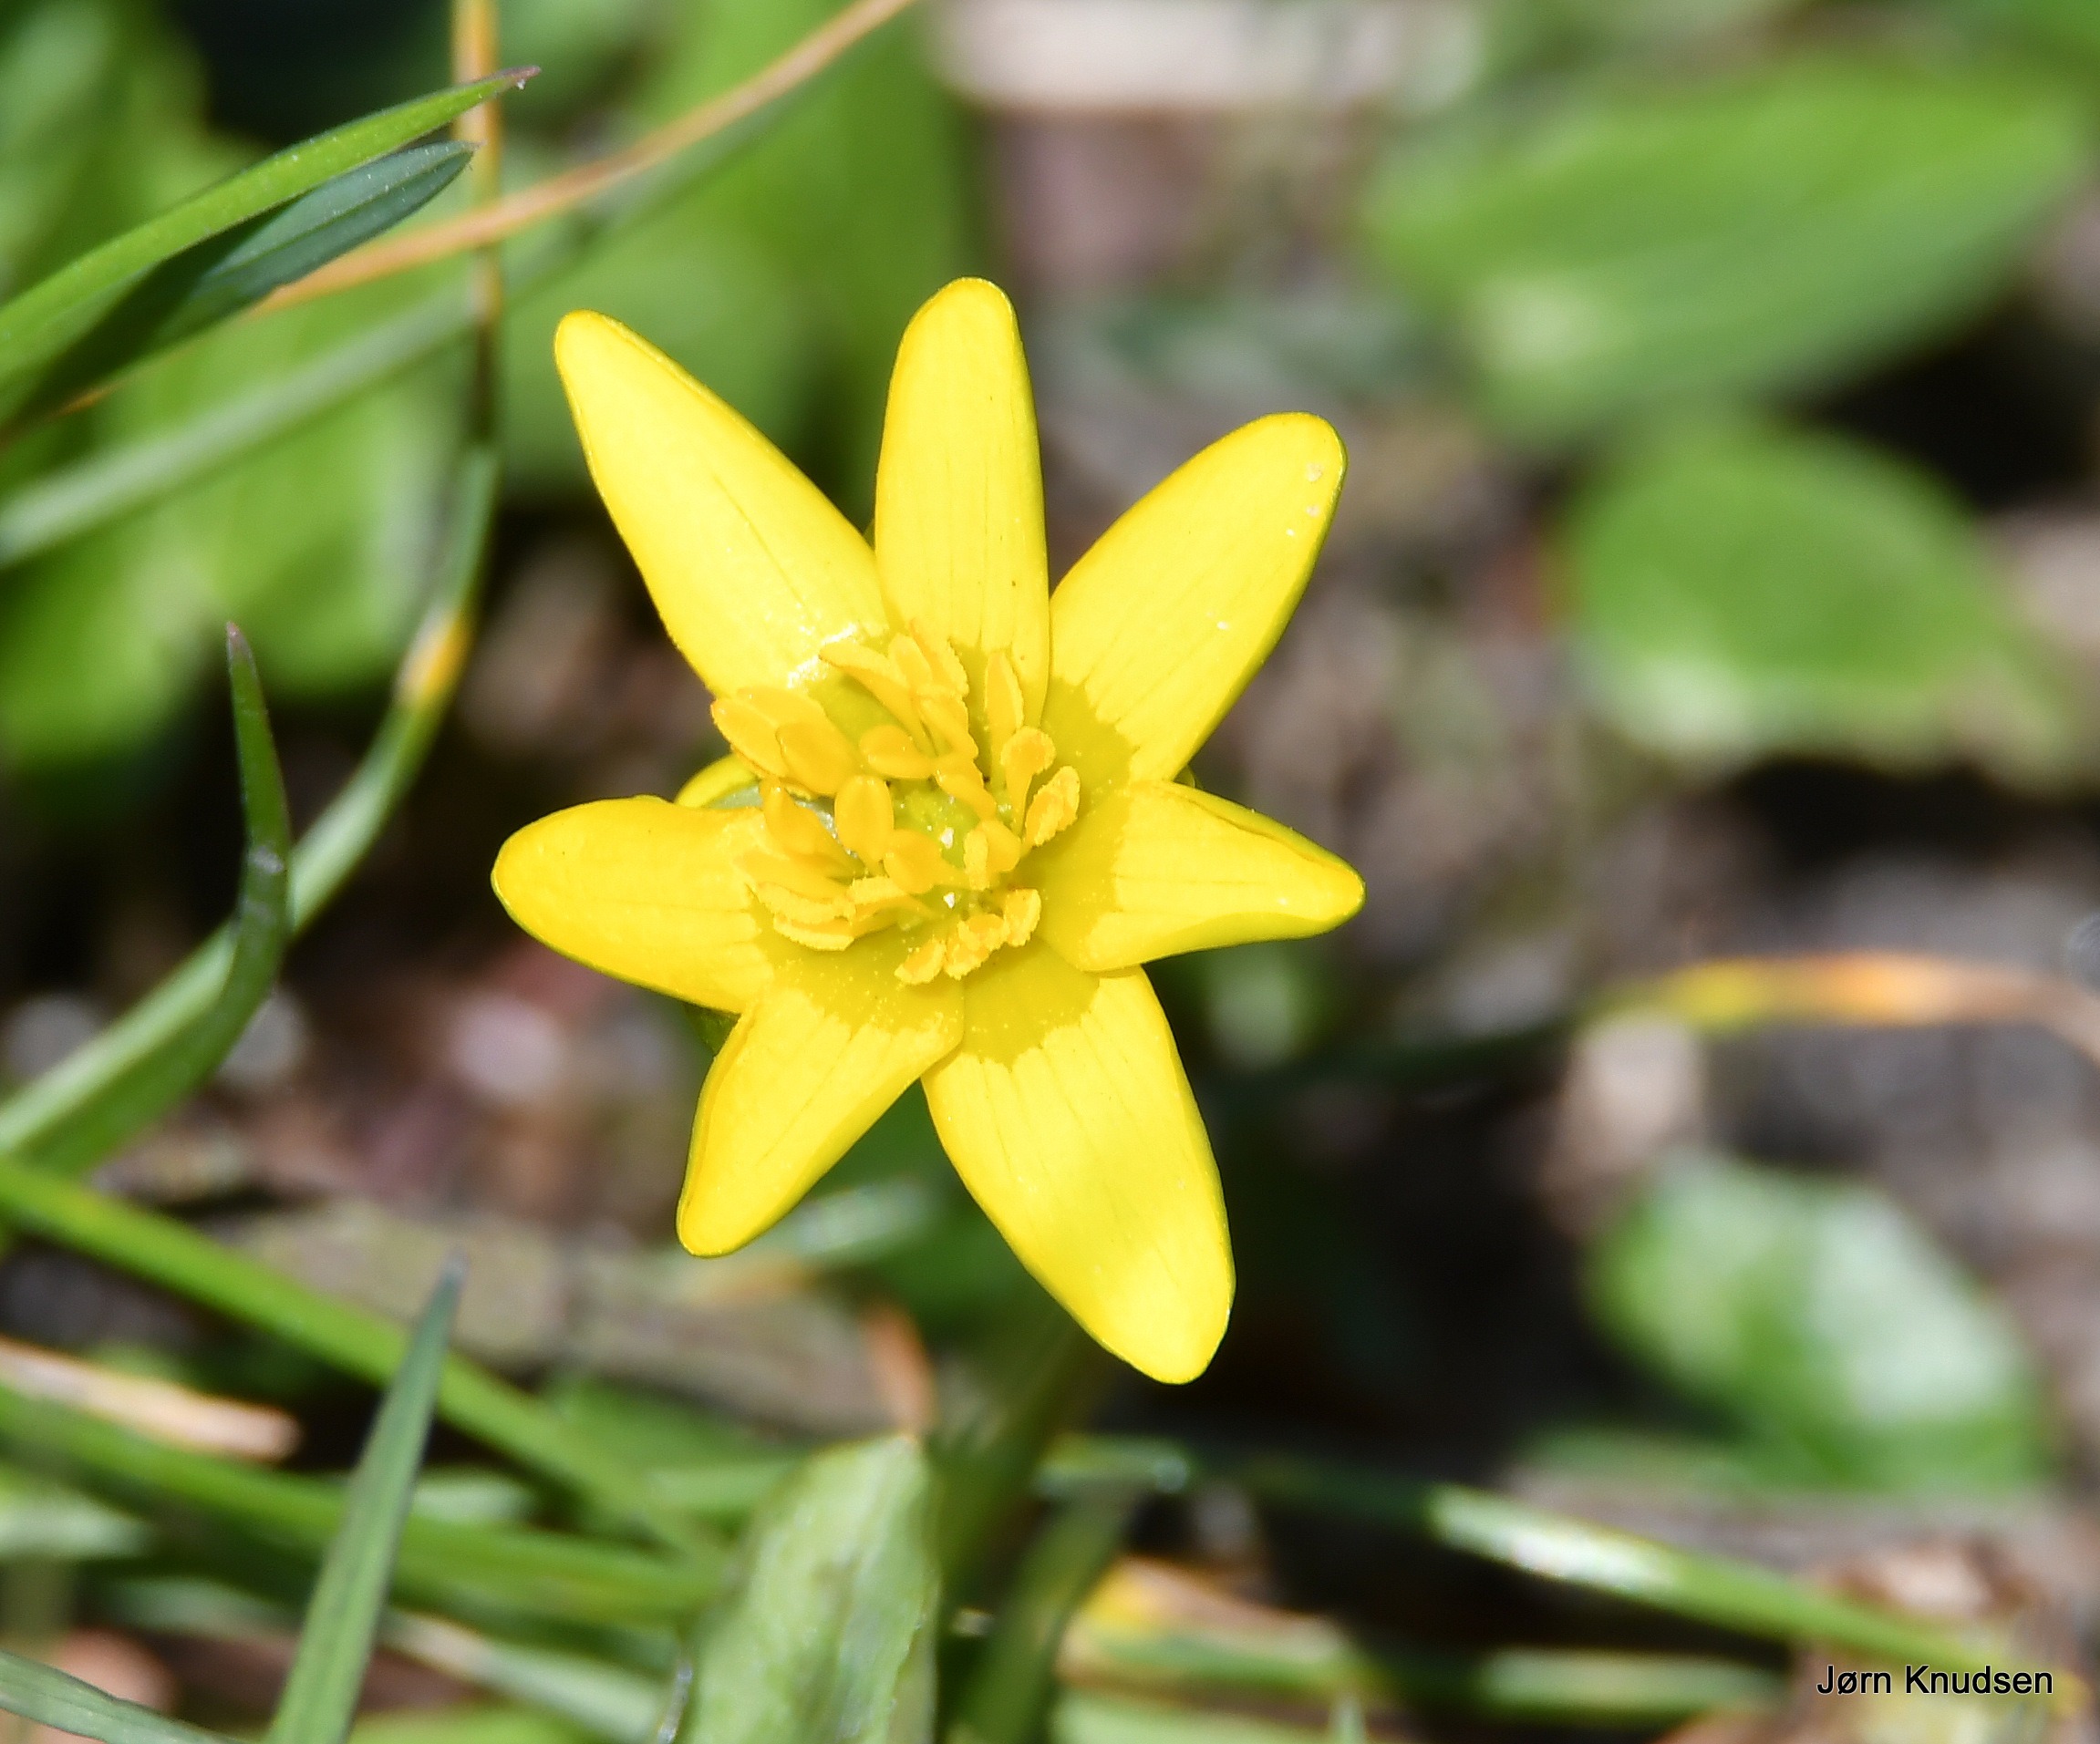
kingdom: Plantae
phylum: Tracheophyta
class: Magnoliopsida
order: Ranunculales
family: Ranunculaceae
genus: Ficaria
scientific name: Ficaria verna
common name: Vorterod
